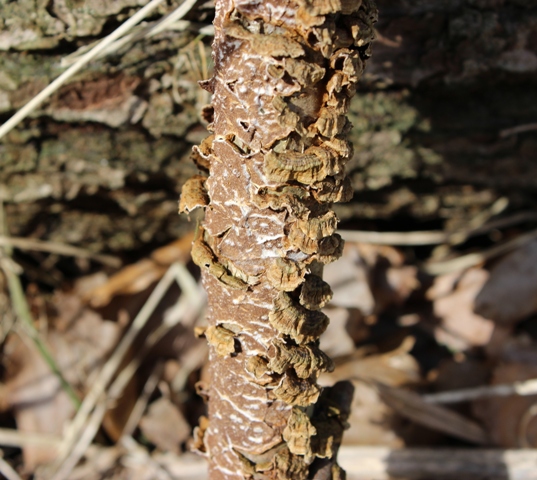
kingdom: Fungi
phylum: Basidiomycota
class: Agaricomycetes
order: Hymenochaetales
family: Hymenochaetaceae
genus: Hydnoporia
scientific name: Hydnoporia tabacina
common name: tobaksbrun ruslædersvamp
